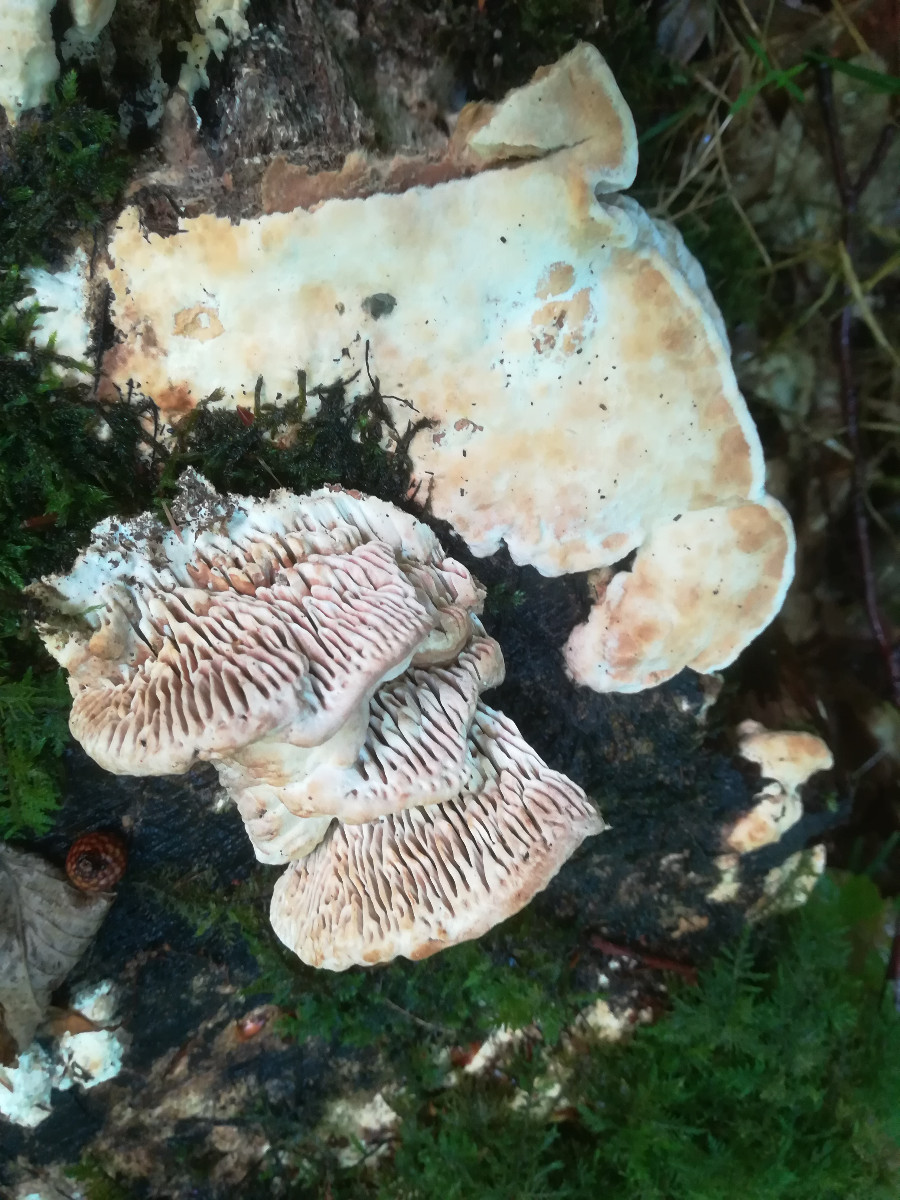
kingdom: Fungi
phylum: Basidiomycota
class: Agaricomycetes
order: Polyporales
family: Fomitopsidaceae
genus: Daedalea
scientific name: Daedalea quercina
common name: ege-labyrintsvamp
